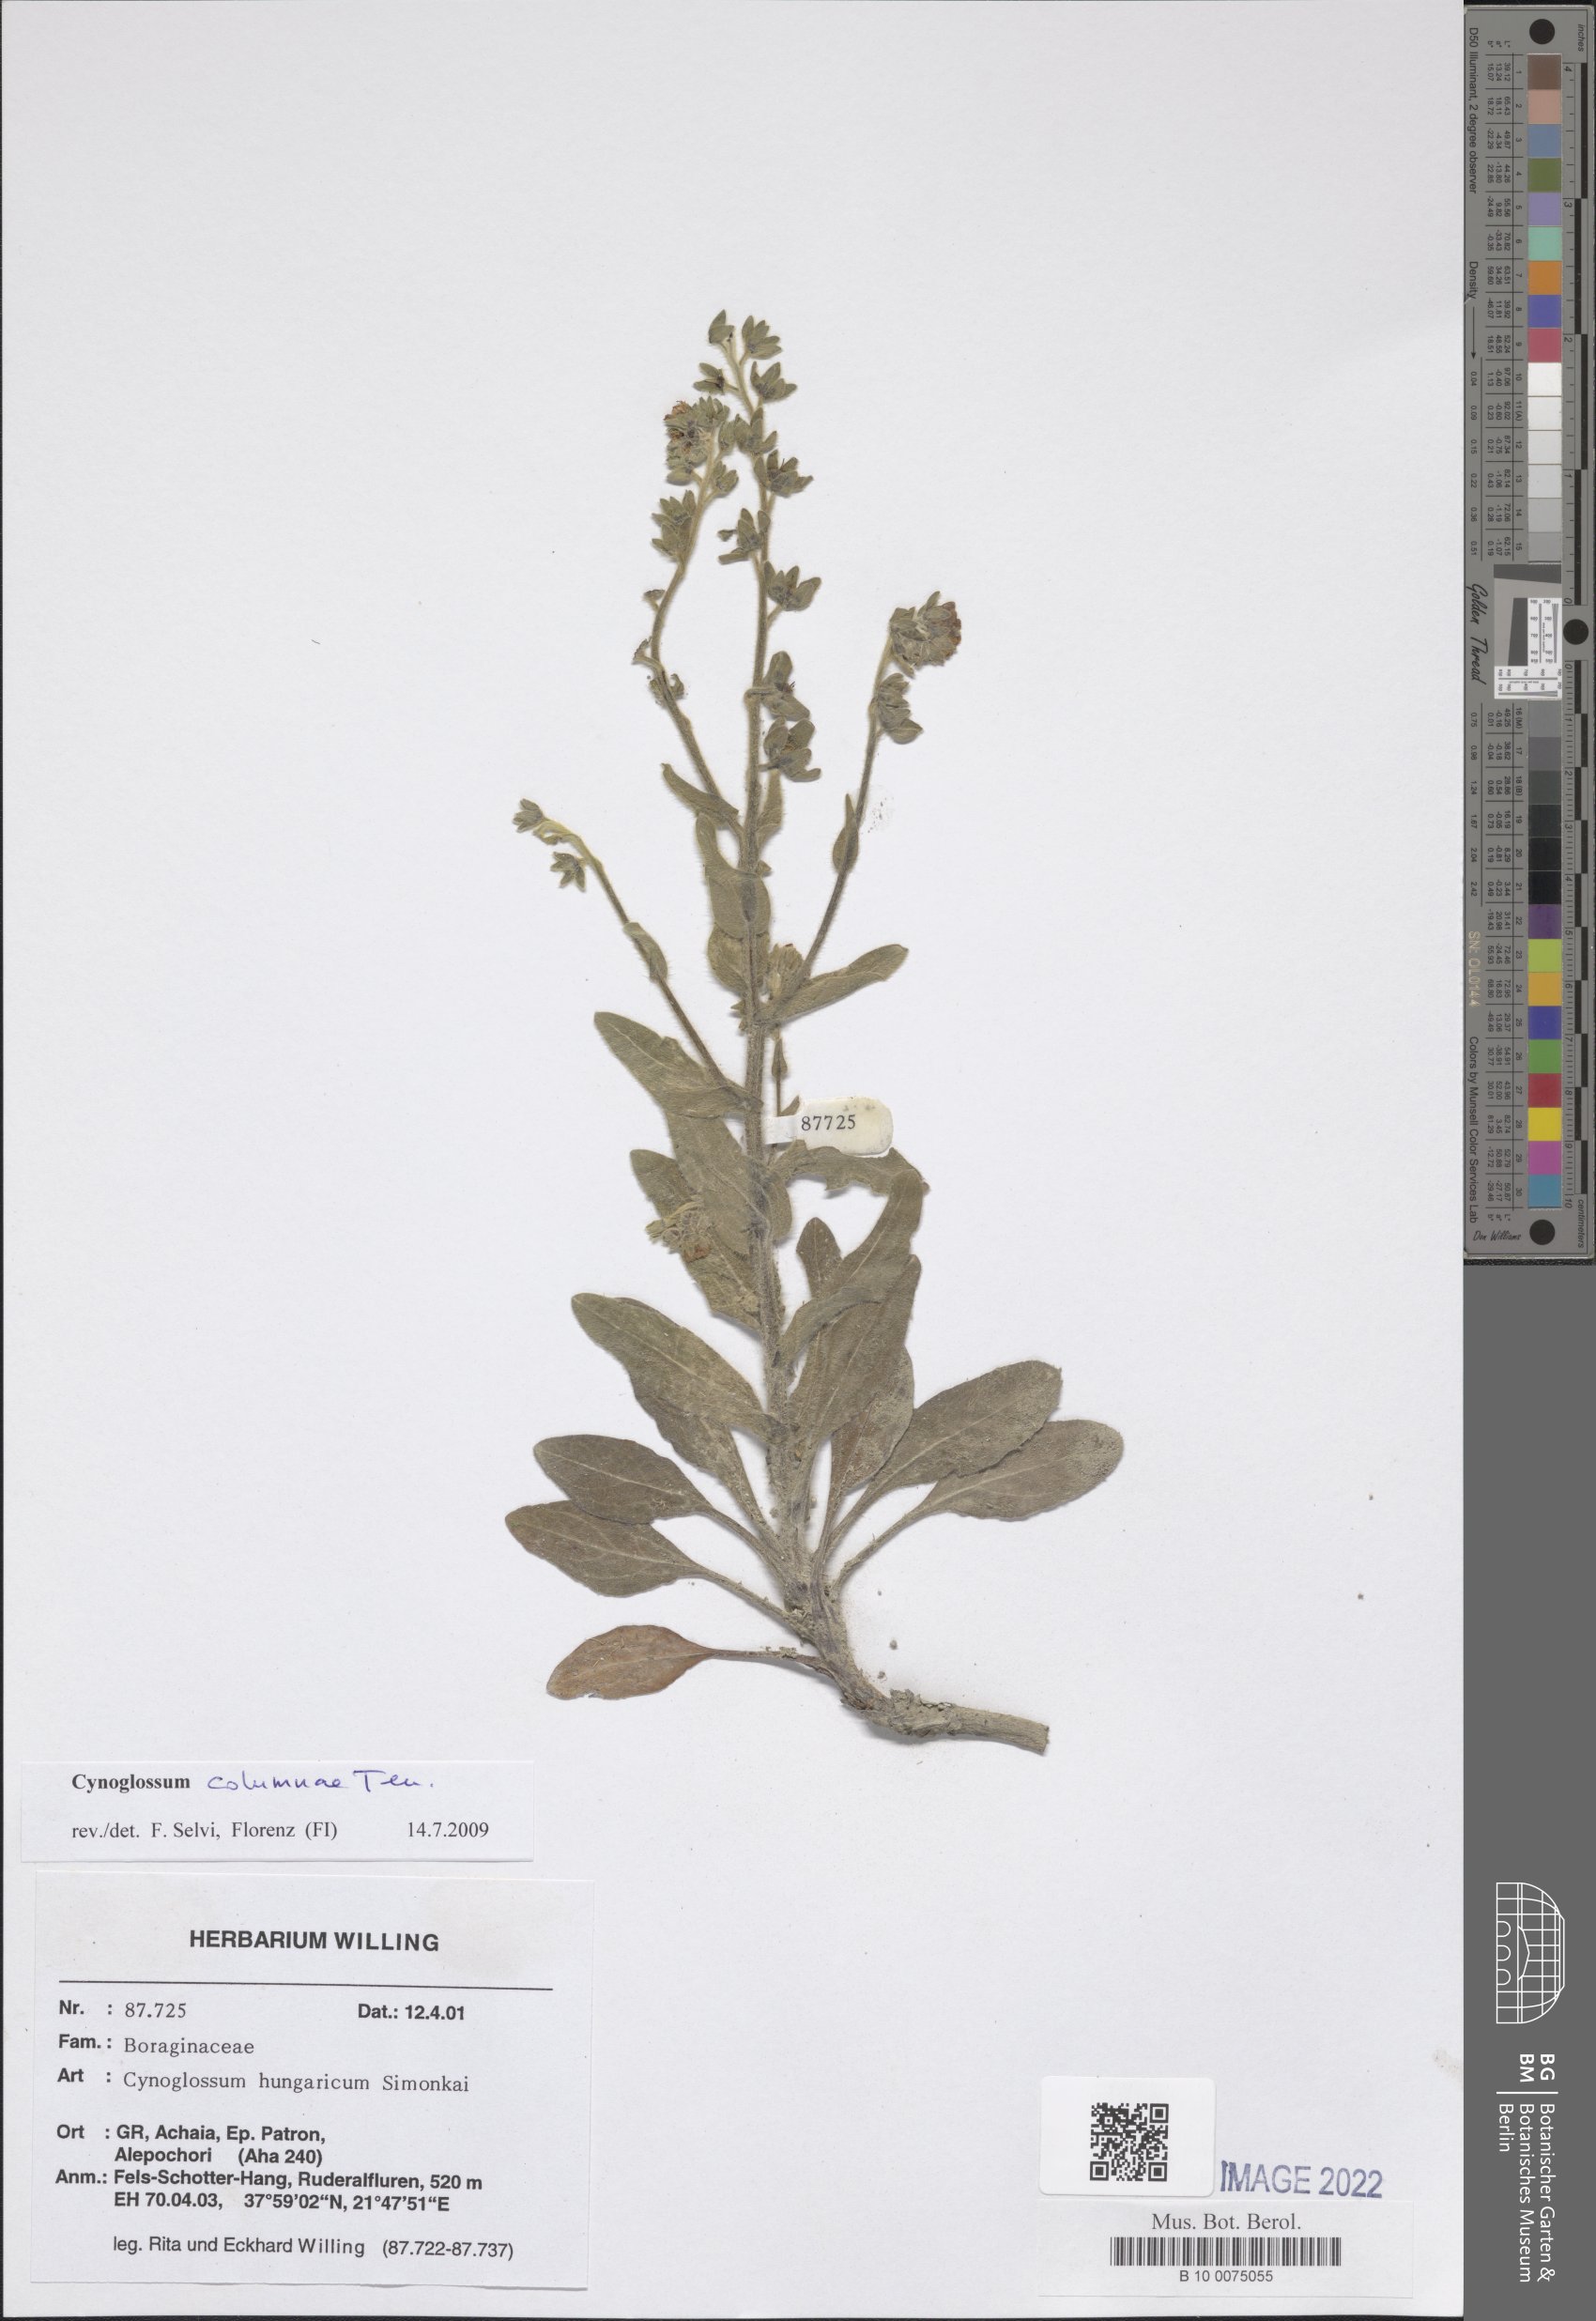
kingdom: Plantae
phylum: Tracheophyta
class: Magnoliopsida
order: Boraginales
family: Boraginaceae
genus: Rindera
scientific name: Rindera columnae
